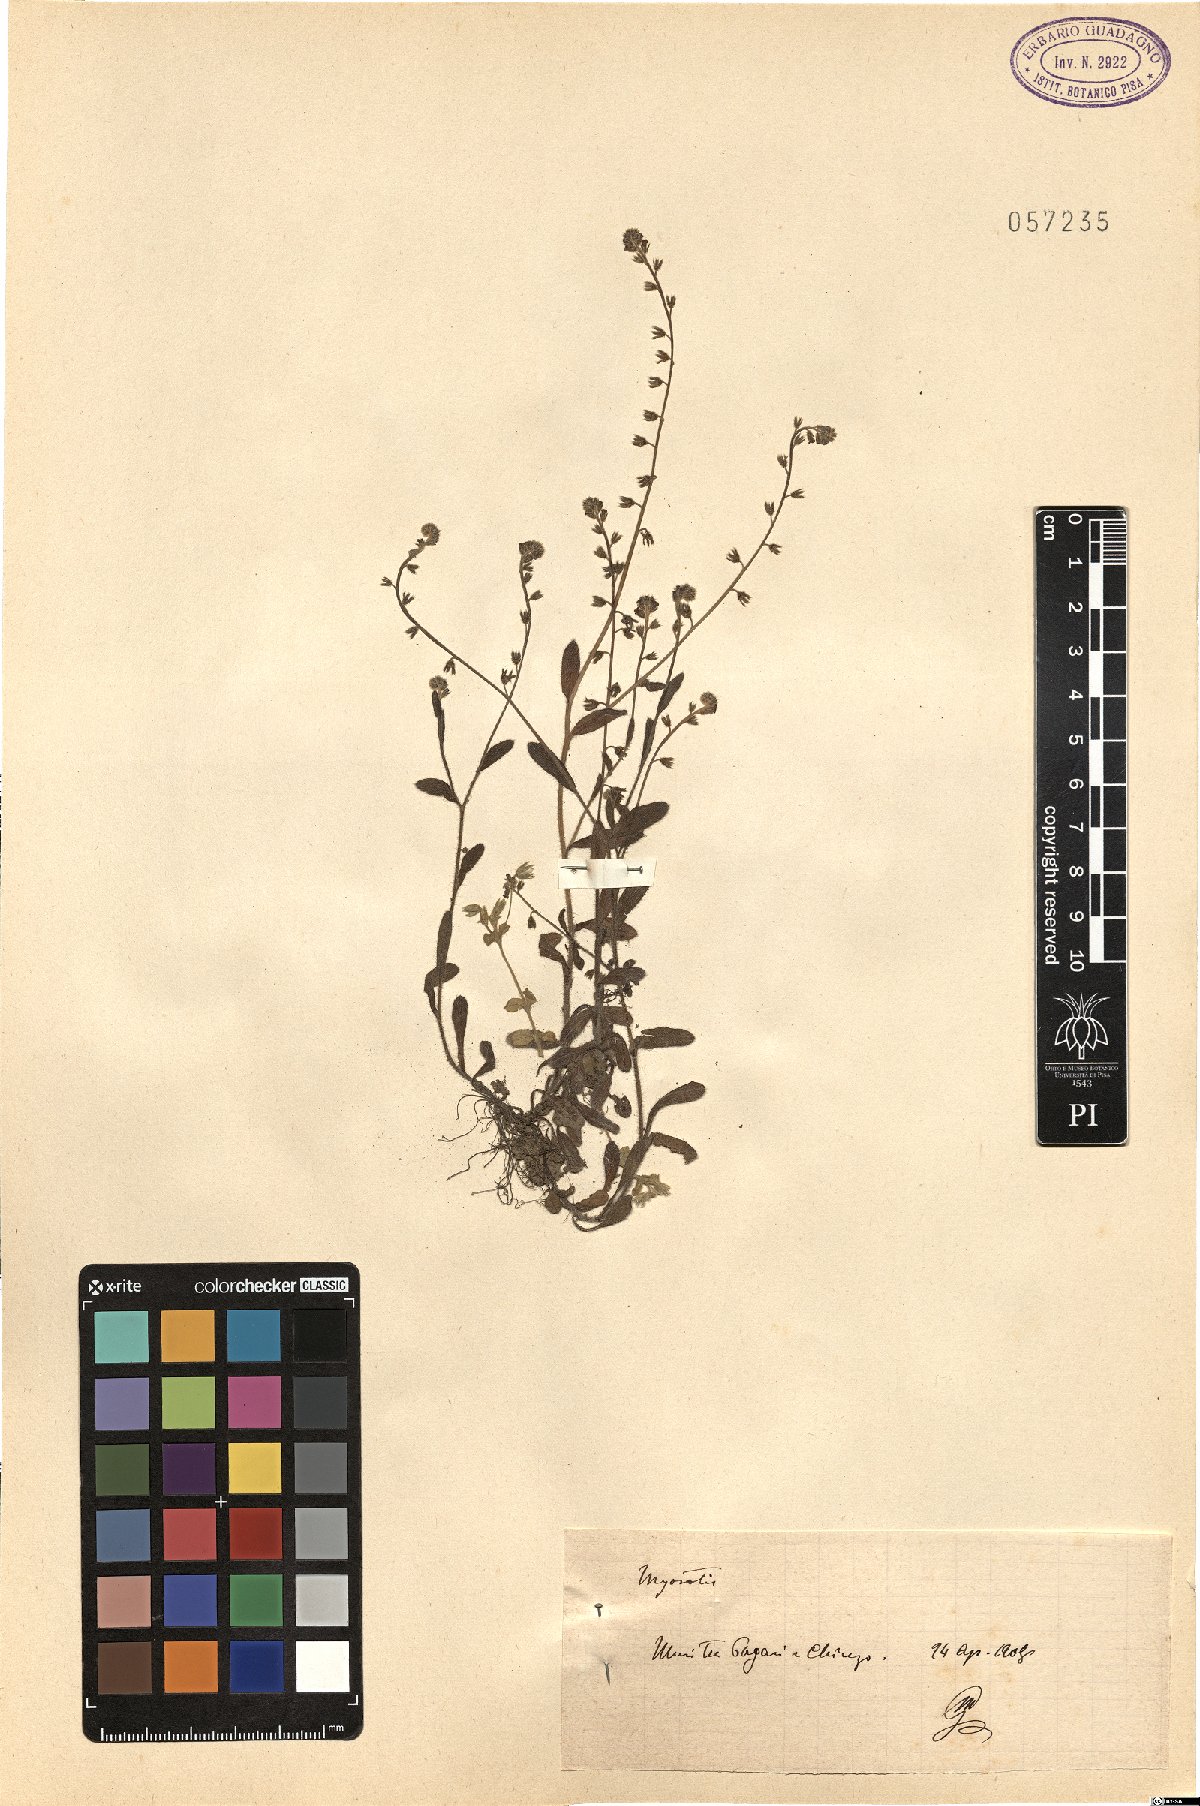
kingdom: Plantae
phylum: Tracheophyta
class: Magnoliopsida
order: Boraginales
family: Boraginaceae
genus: Myosotis
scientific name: Myosotis
